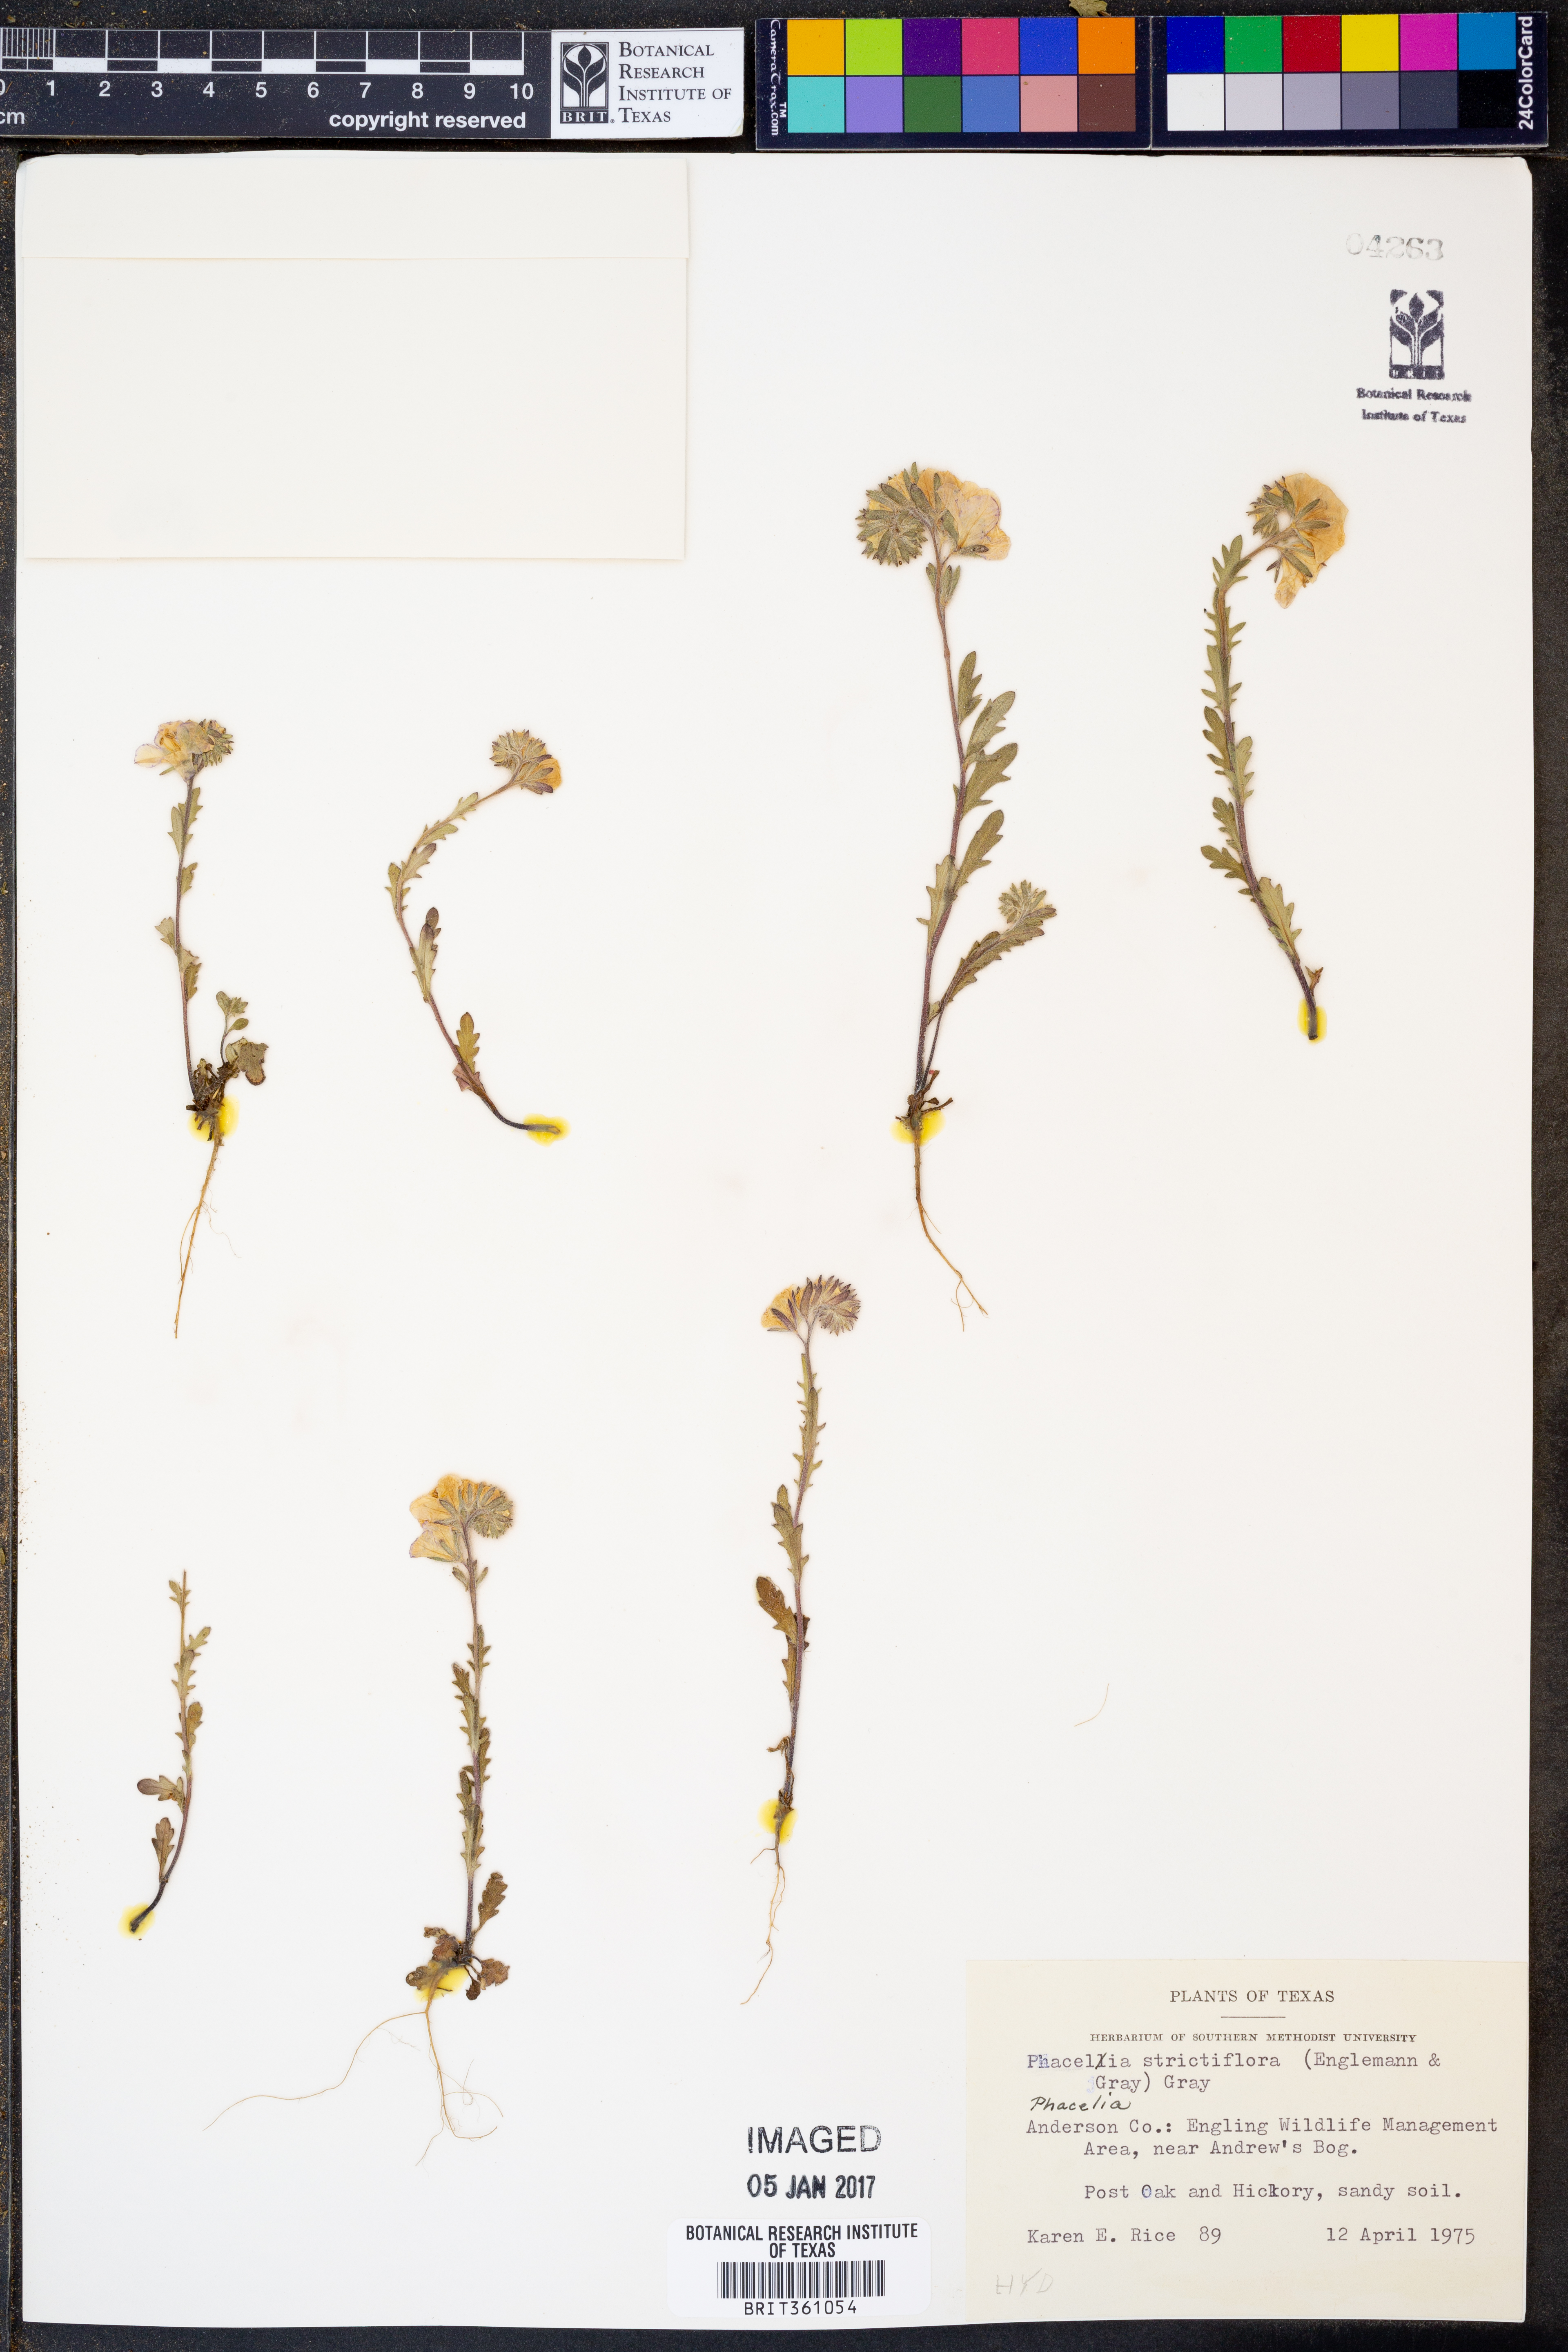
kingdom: Plantae
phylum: Tracheophyta
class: Magnoliopsida
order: Boraginales
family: Hydrophyllaceae
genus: Phacelia
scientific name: Phacelia strictiflora
